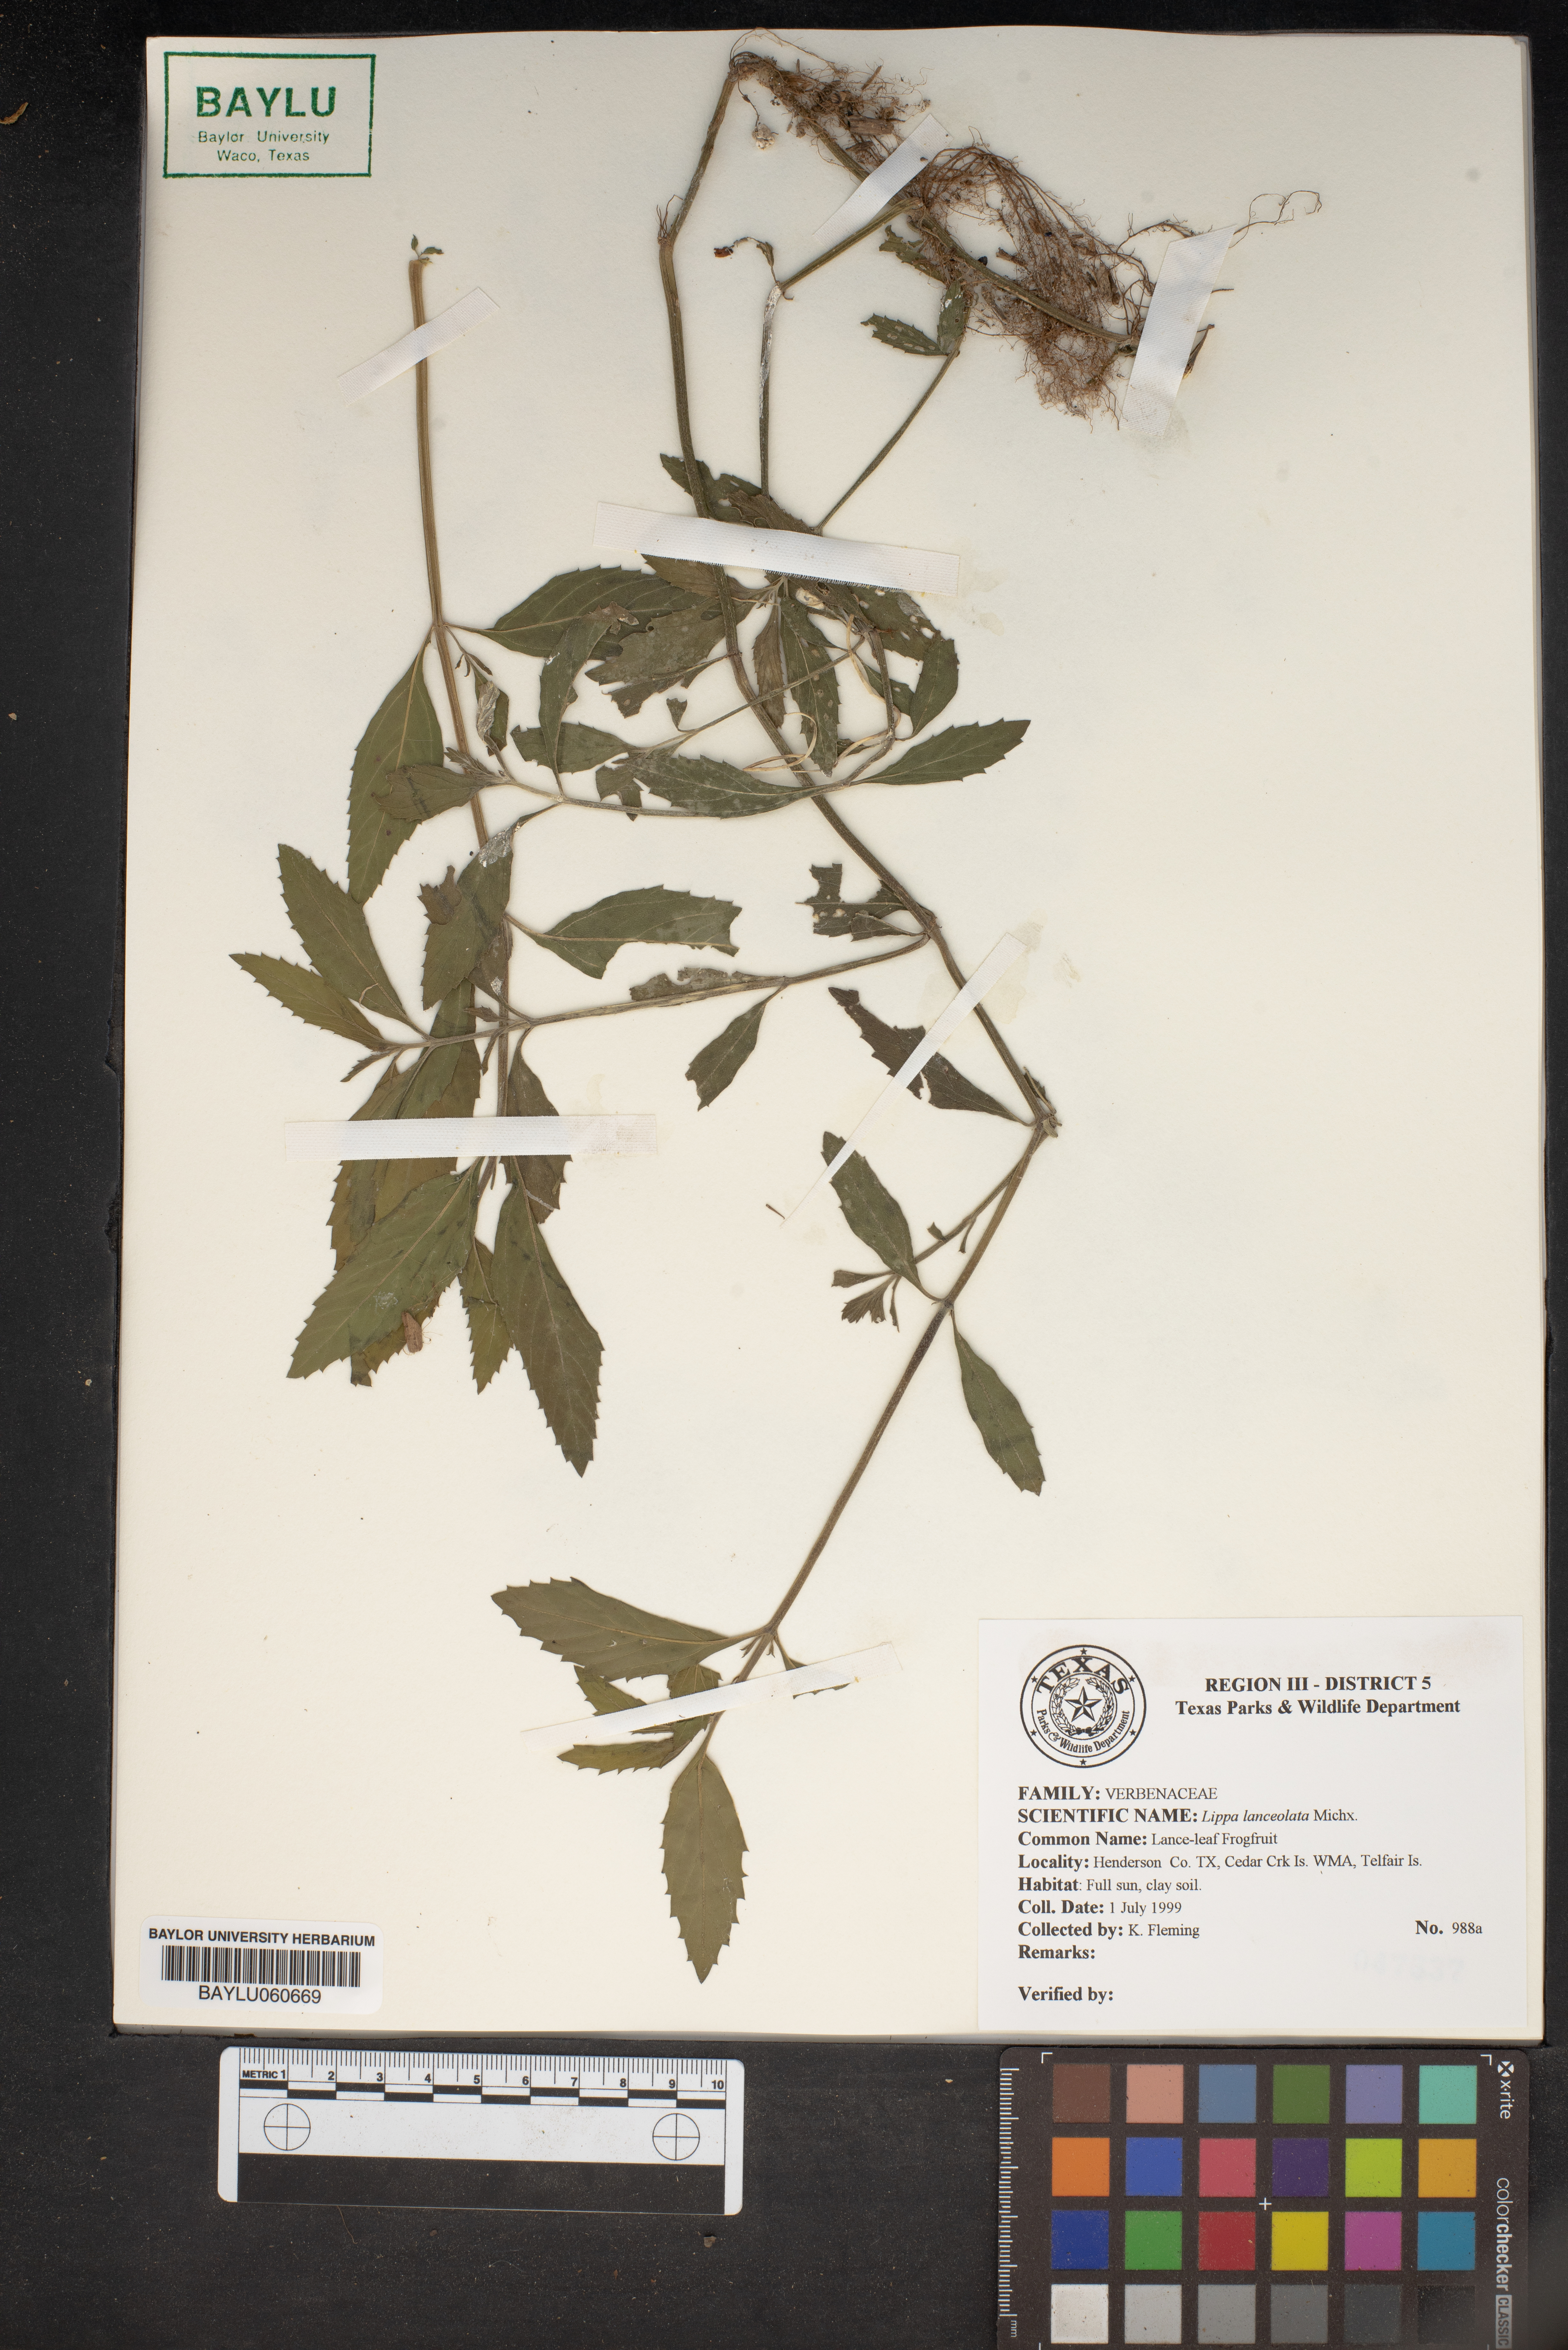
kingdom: Plantae
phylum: Tracheophyta
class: Magnoliopsida
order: Lamiales
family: Verbenaceae
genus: Phyla
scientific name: Phyla lanceolata
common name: Northern fogfruit
